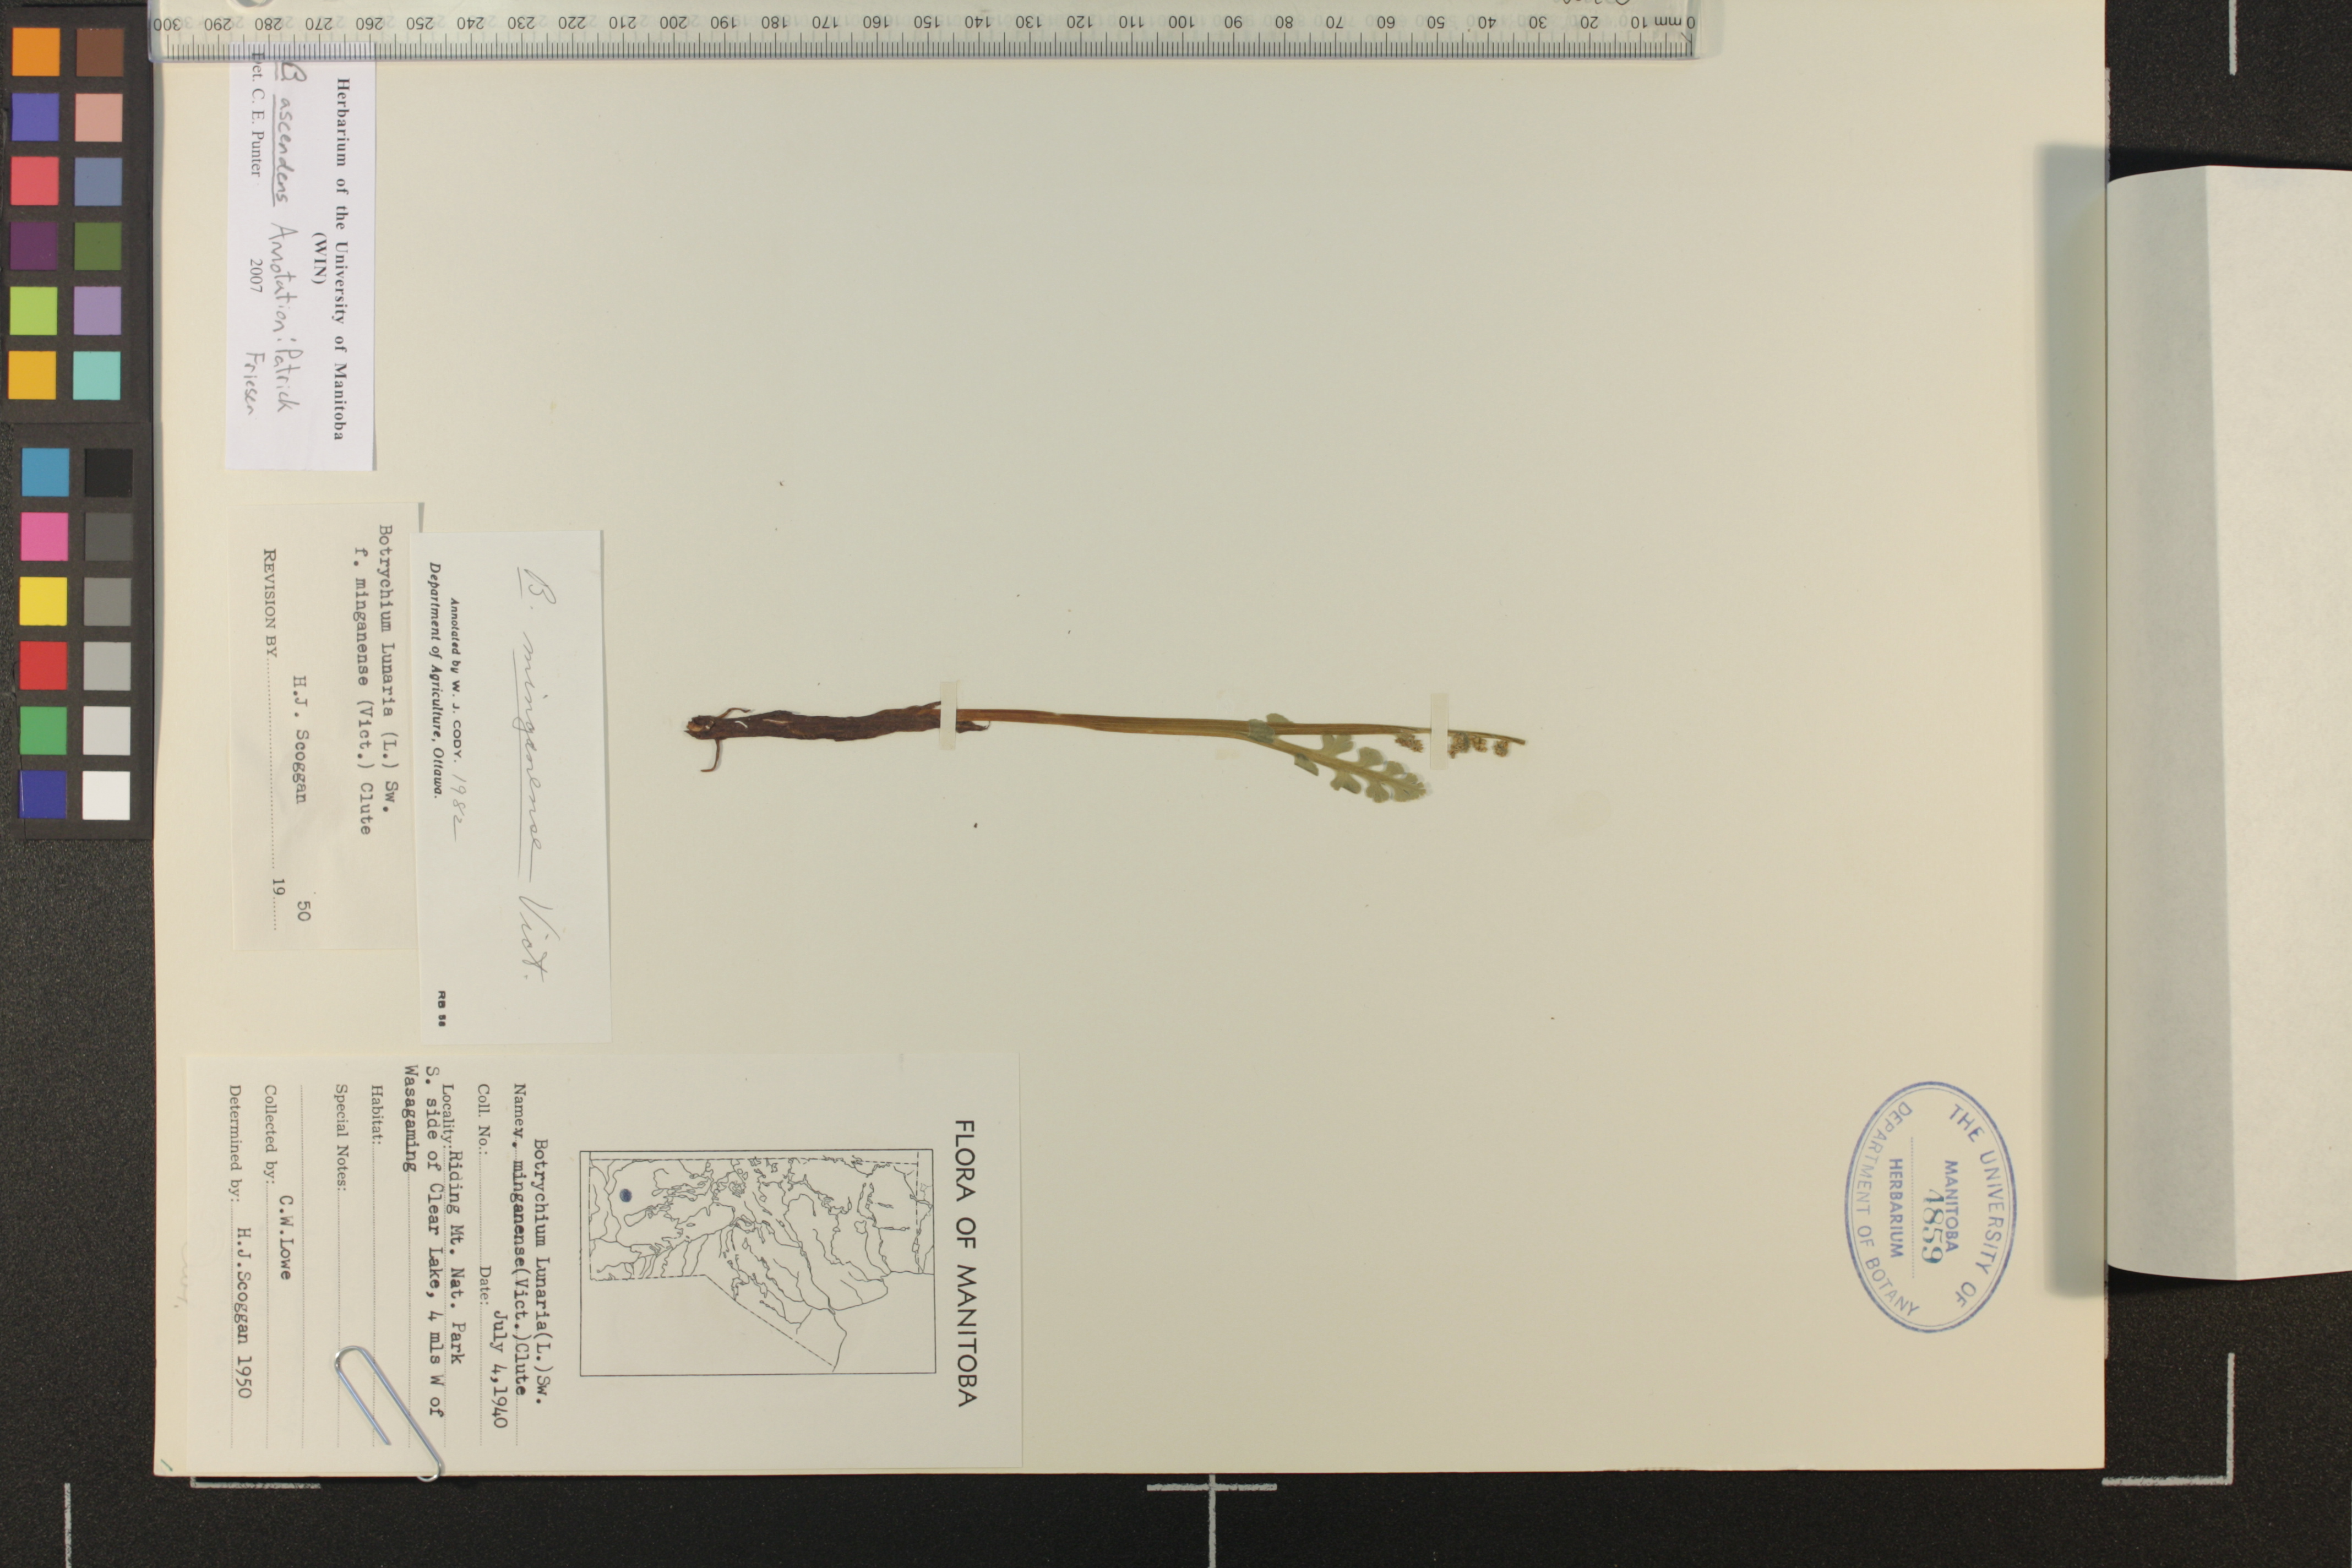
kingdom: Plantae
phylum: Tracheophyta
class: Polypodiopsida
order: Ophioglossales
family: Ophioglossaceae
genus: Botrychium
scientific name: Botrychium spathulatum
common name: Spatulate moonwort
